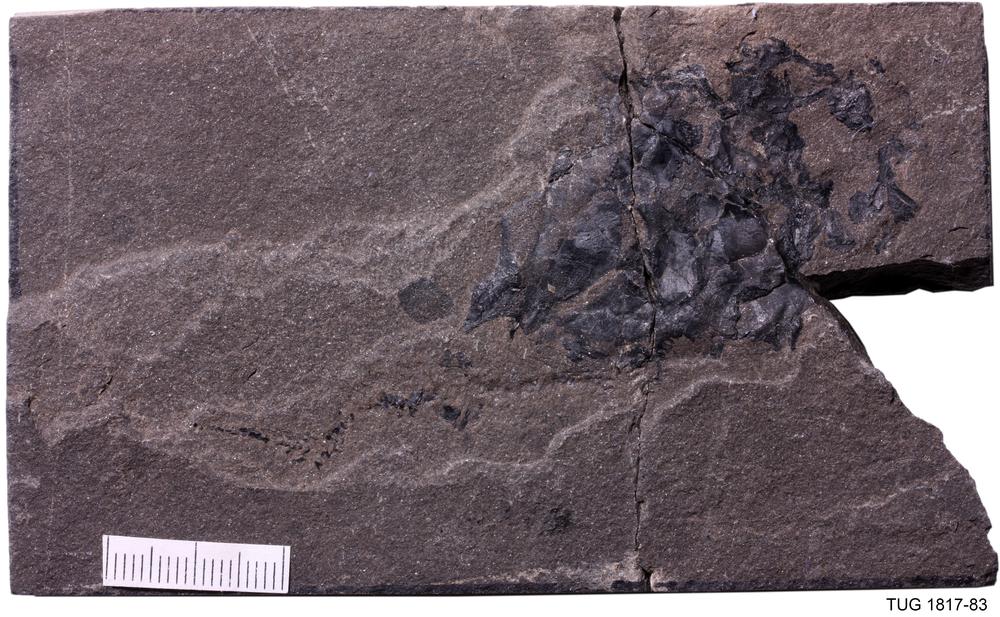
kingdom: Animalia
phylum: Chordata
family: Coccosteidae
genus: Millerosteus
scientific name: Millerosteus minor
